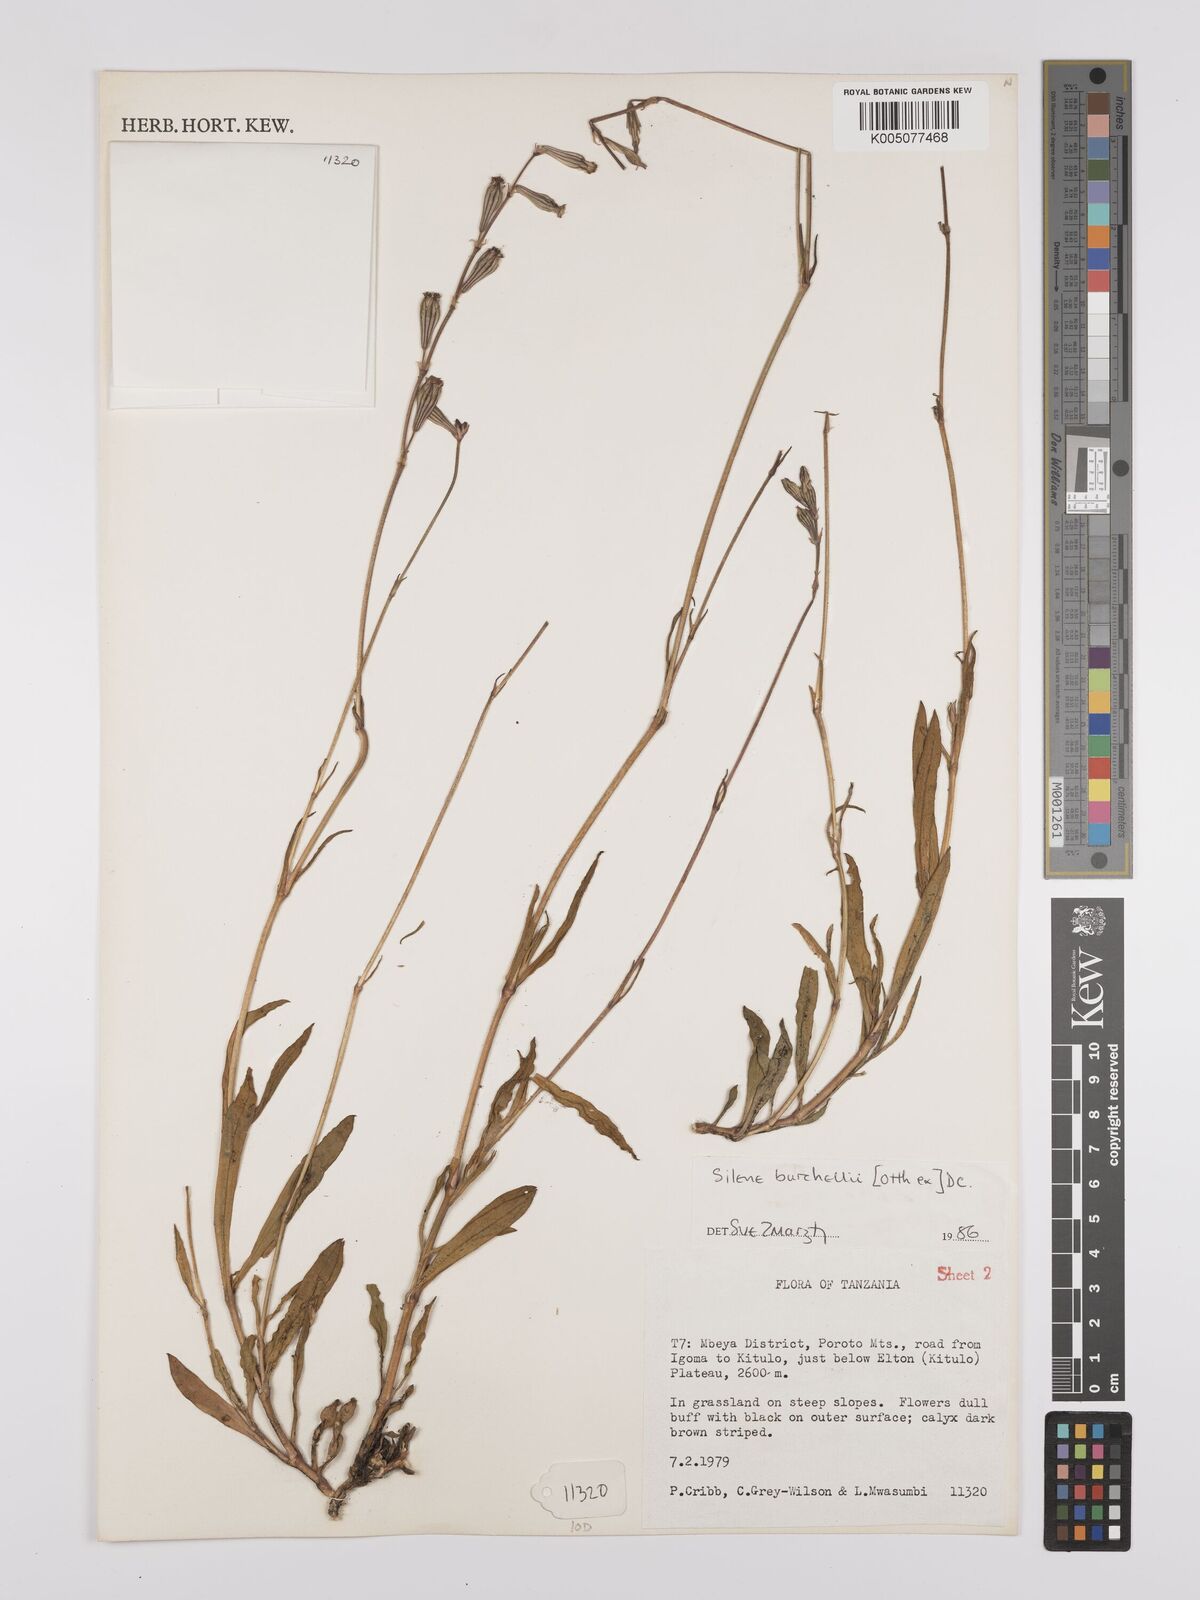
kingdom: Plantae
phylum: Tracheophyta
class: Magnoliopsida
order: Caryophyllales
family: Caryophyllaceae
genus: Silene
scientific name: Silene burchellii
